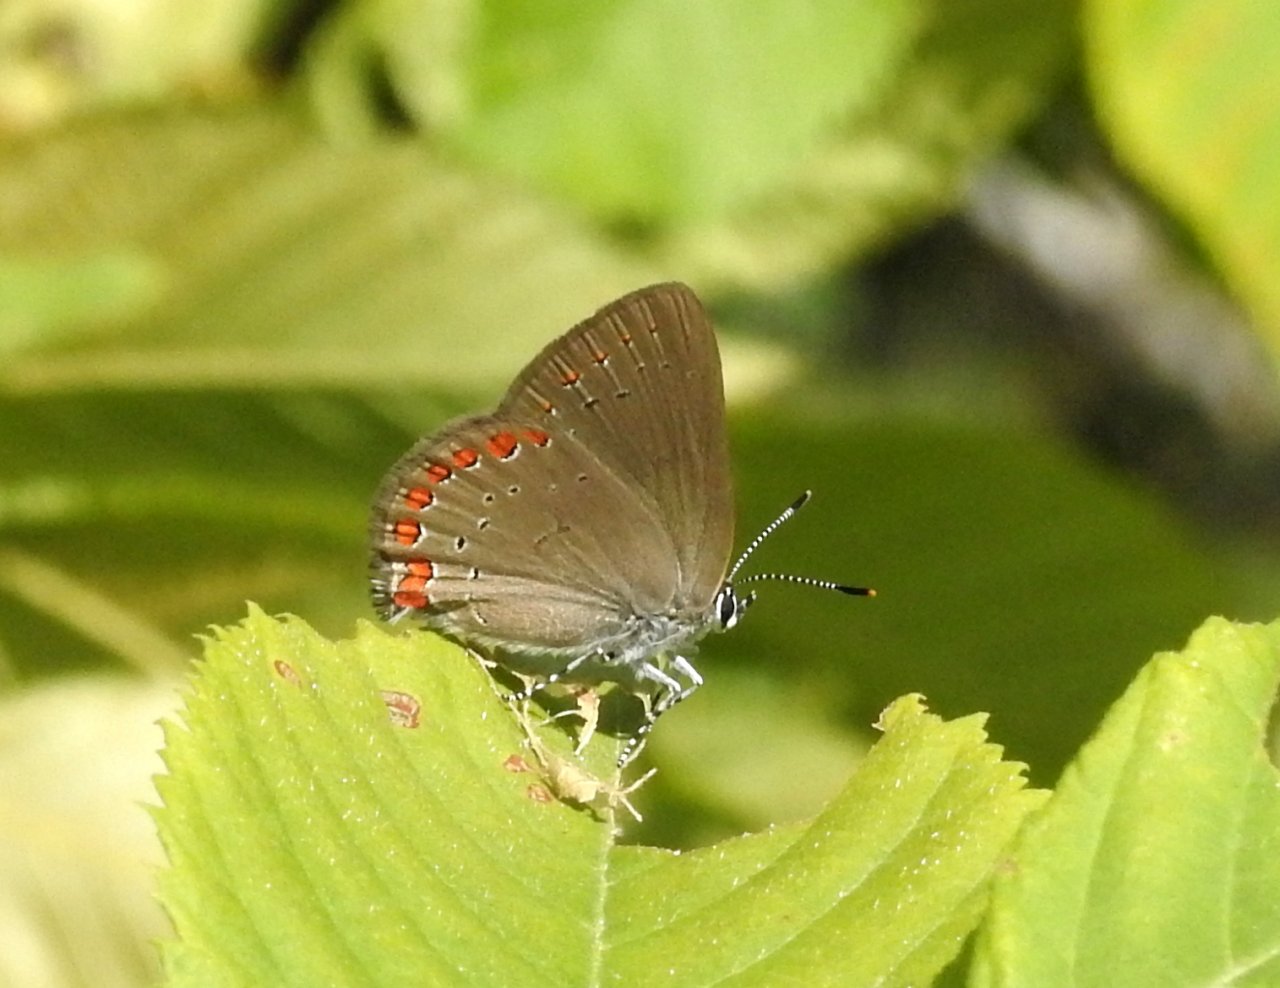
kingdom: Animalia
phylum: Arthropoda
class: Insecta
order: Lepidoptera
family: Lycaenidae
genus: Harkenclenus
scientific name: Harkenclenus titus
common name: Coral Hairstreak
